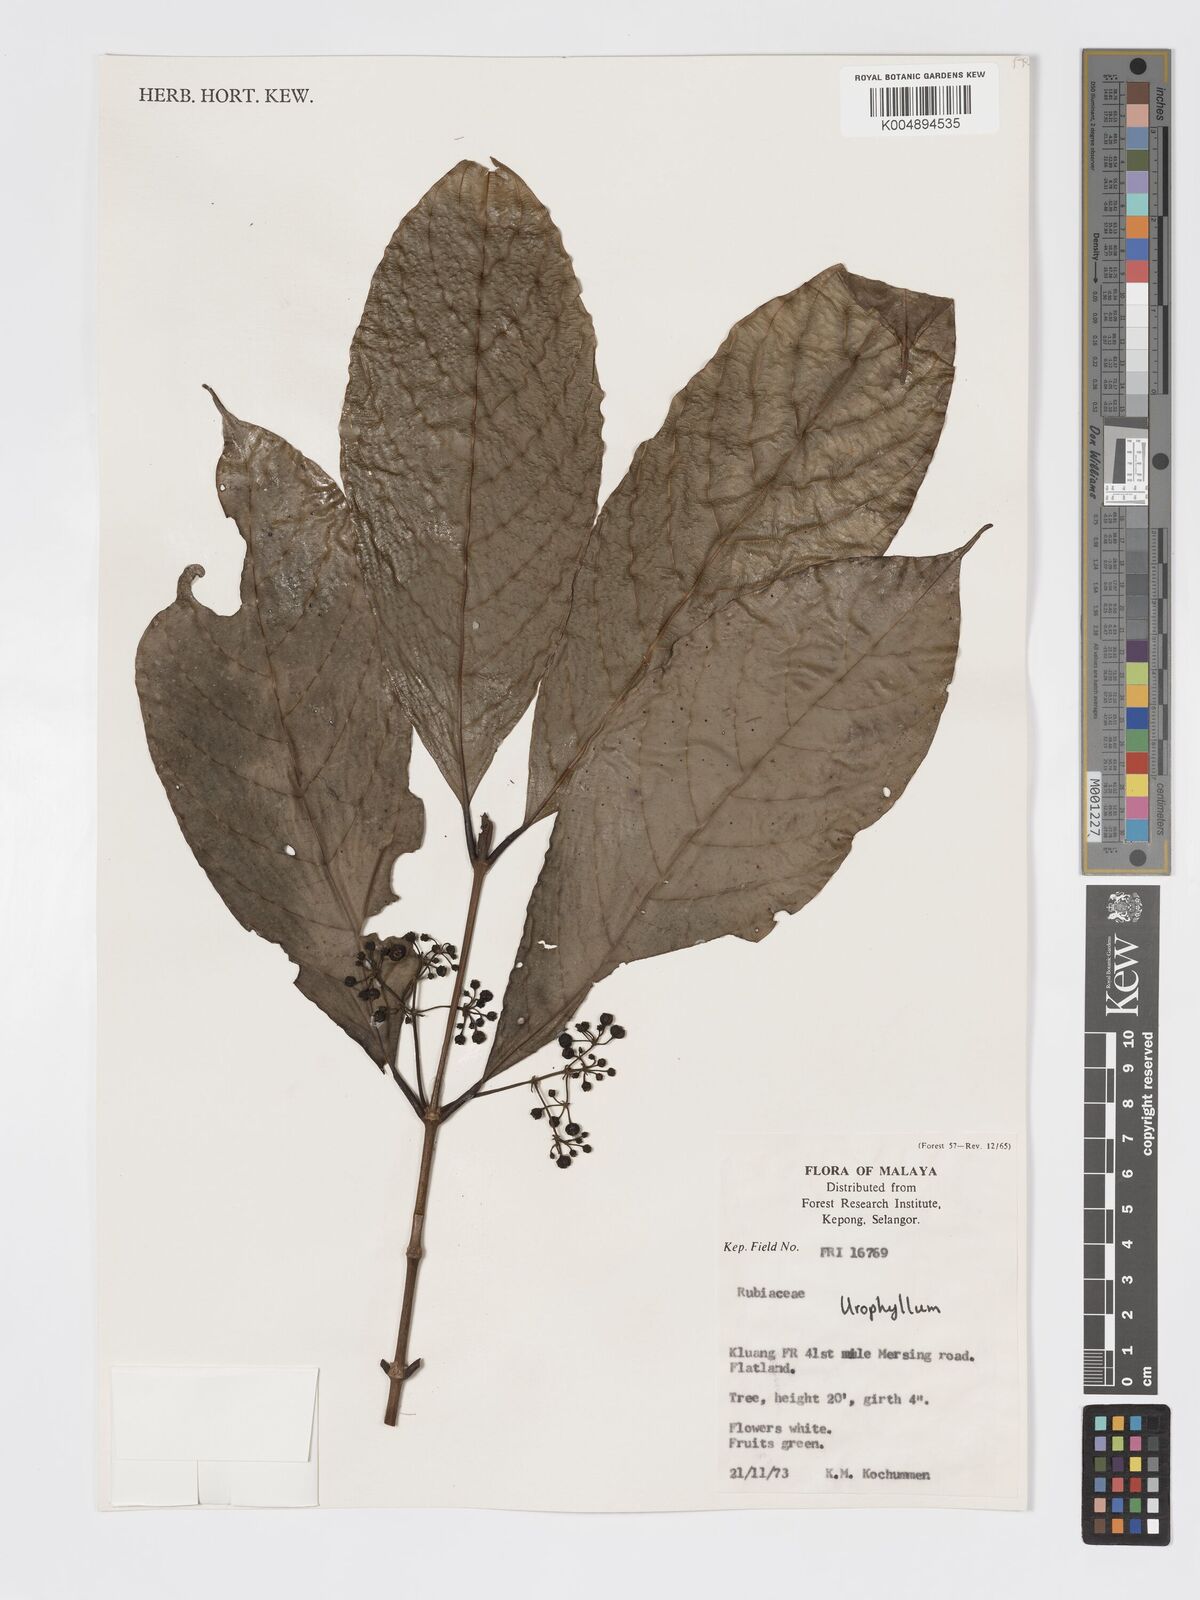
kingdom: Plantae
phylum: Tracheophyta
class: Magnoliopsida
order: Gentianales
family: Rubiaceae
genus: Urophyllum
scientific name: Urophyllum malayense
